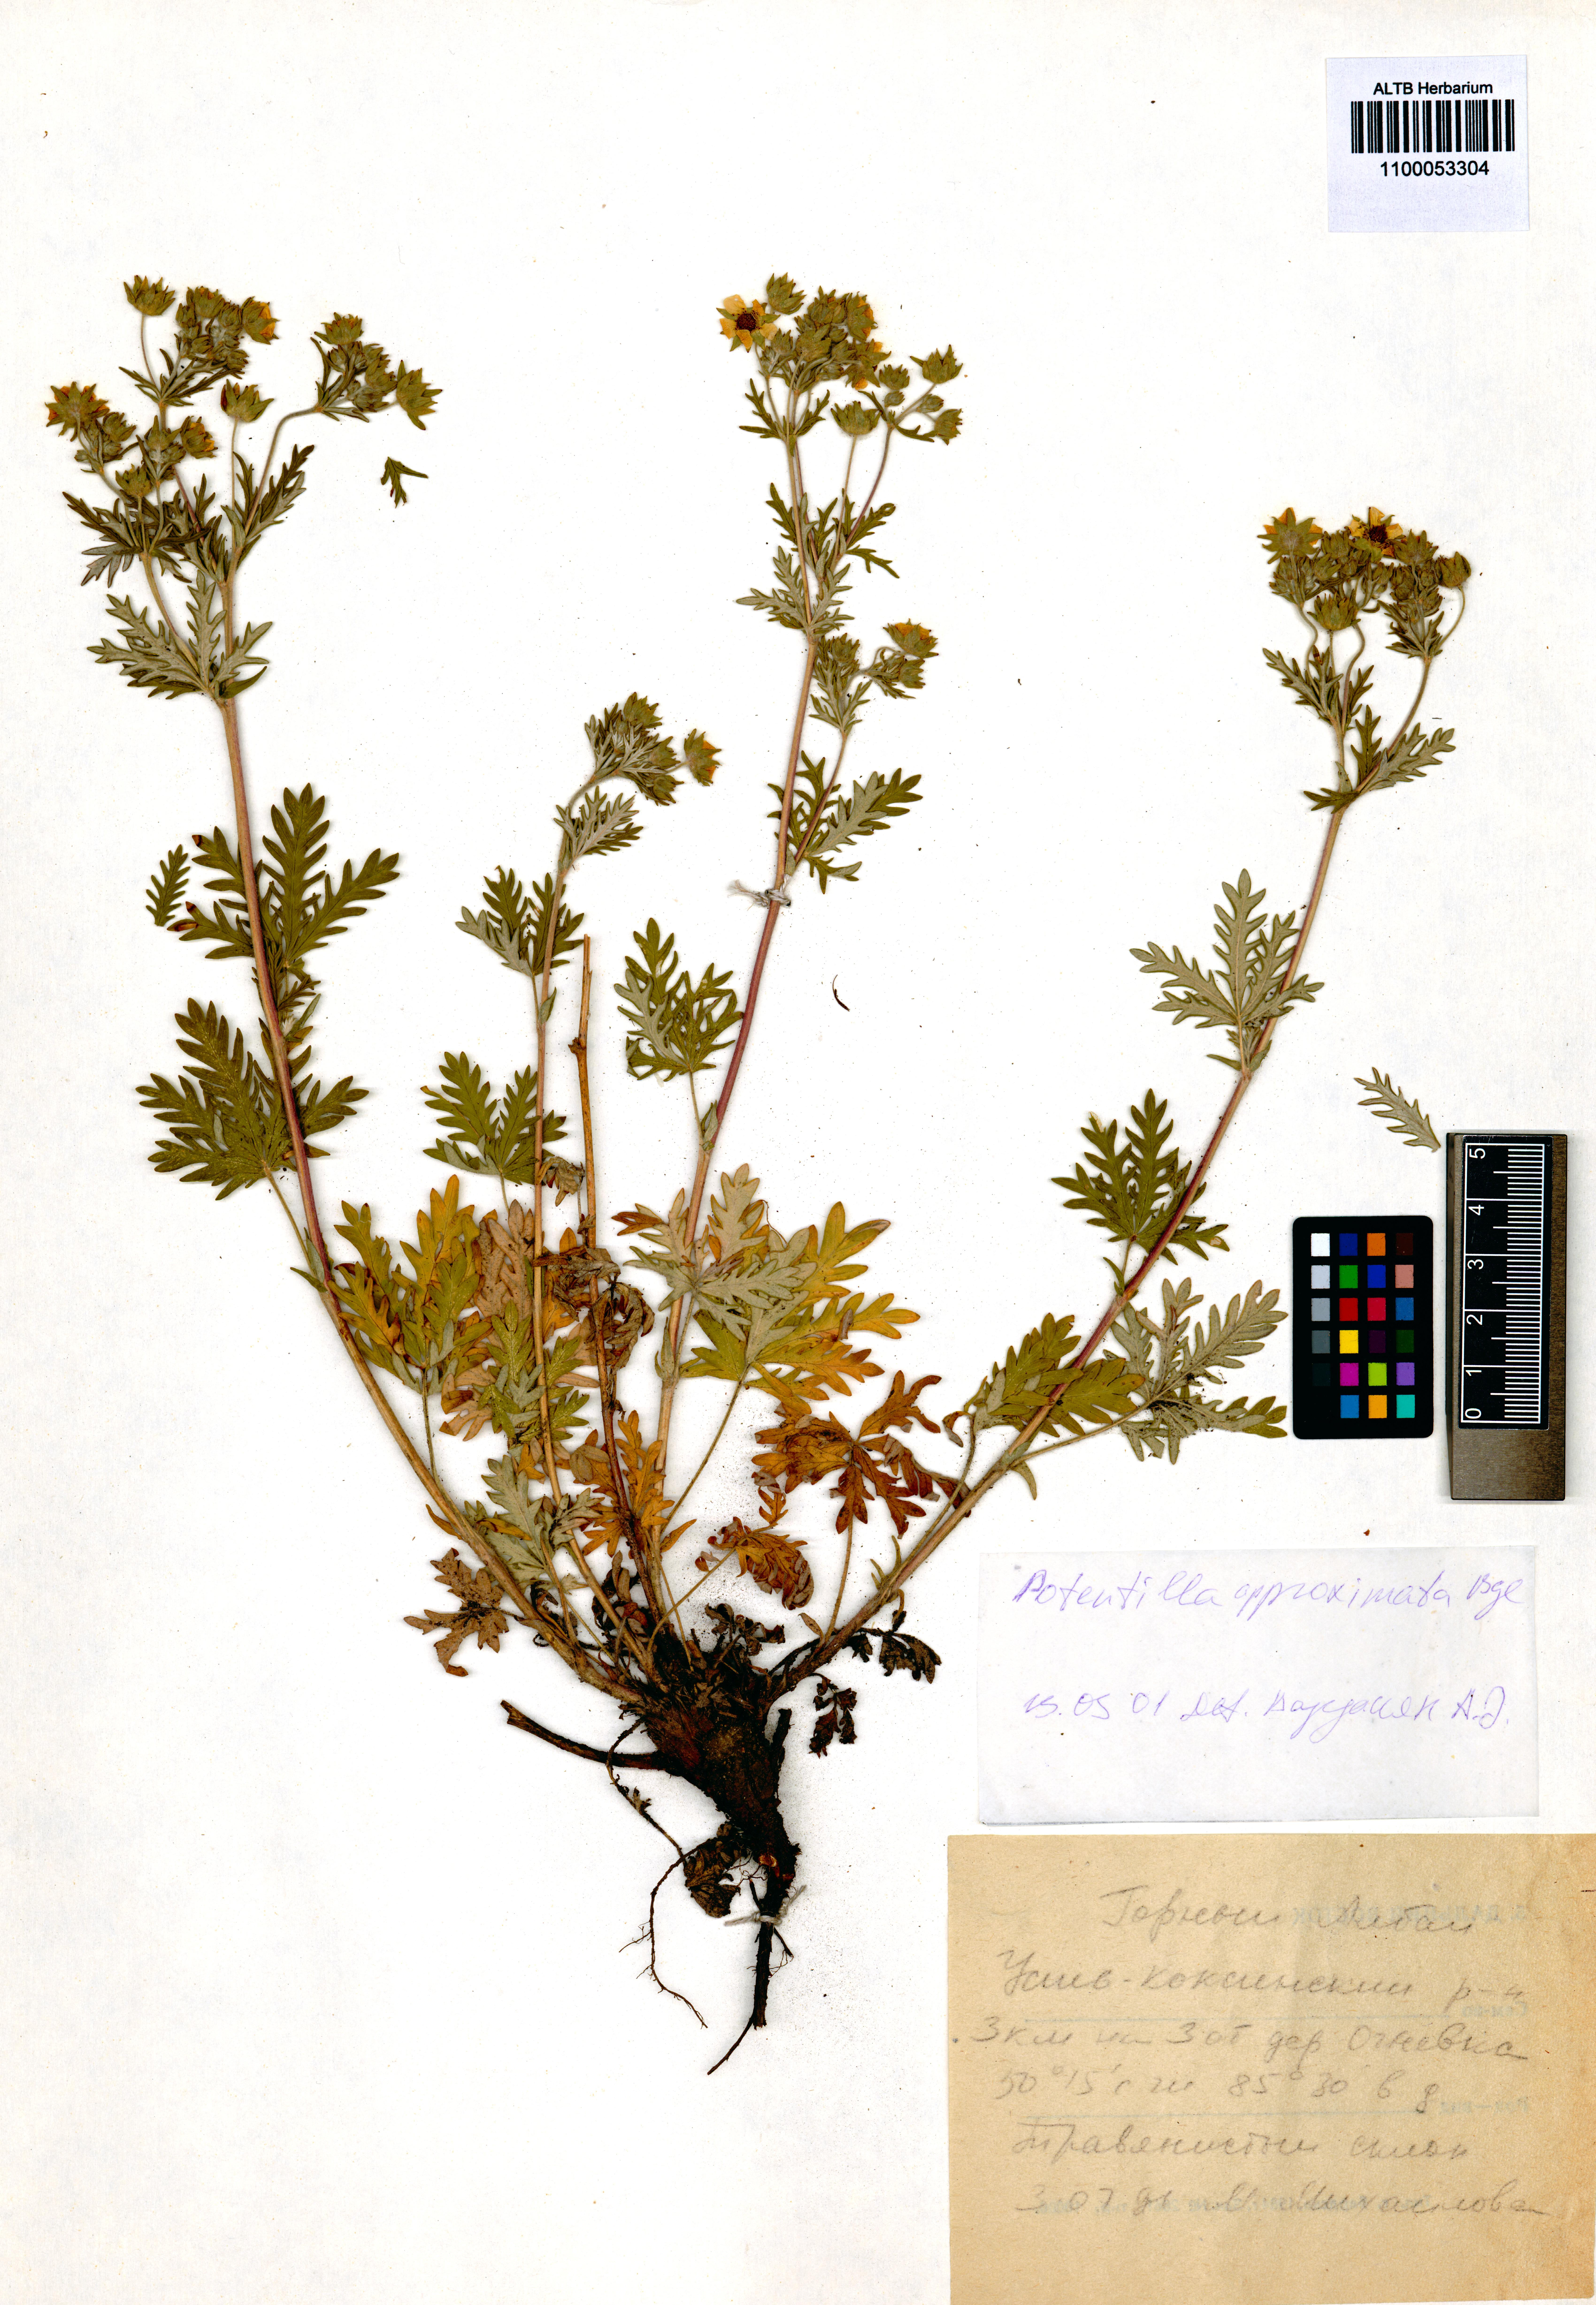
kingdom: Plantae
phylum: Tracheophyta
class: Magnoliopsida
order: Rosales
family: Rosaceae
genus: Potentilla
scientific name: Potentilla conferta
